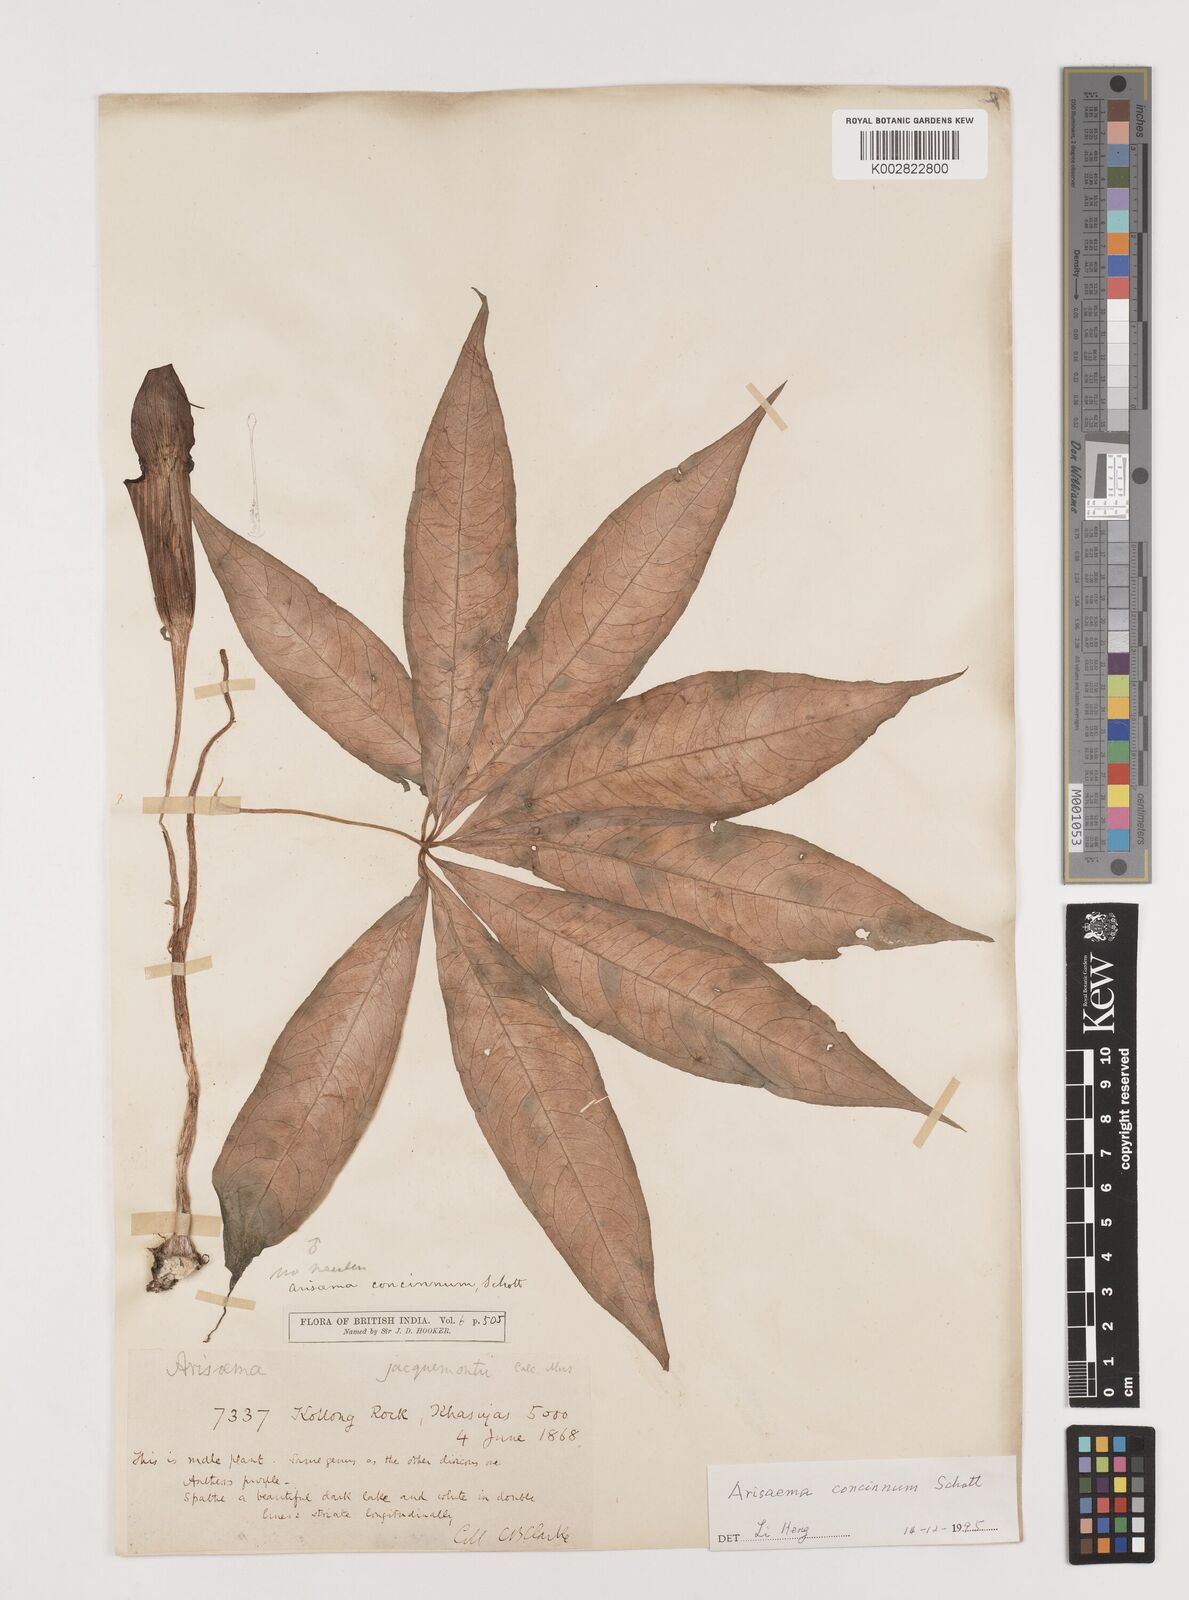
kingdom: Plantae
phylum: Tracheophyta
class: Liliopsida
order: Alismatales
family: Araceae
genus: Arisaema
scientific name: Arisaema concinnum
